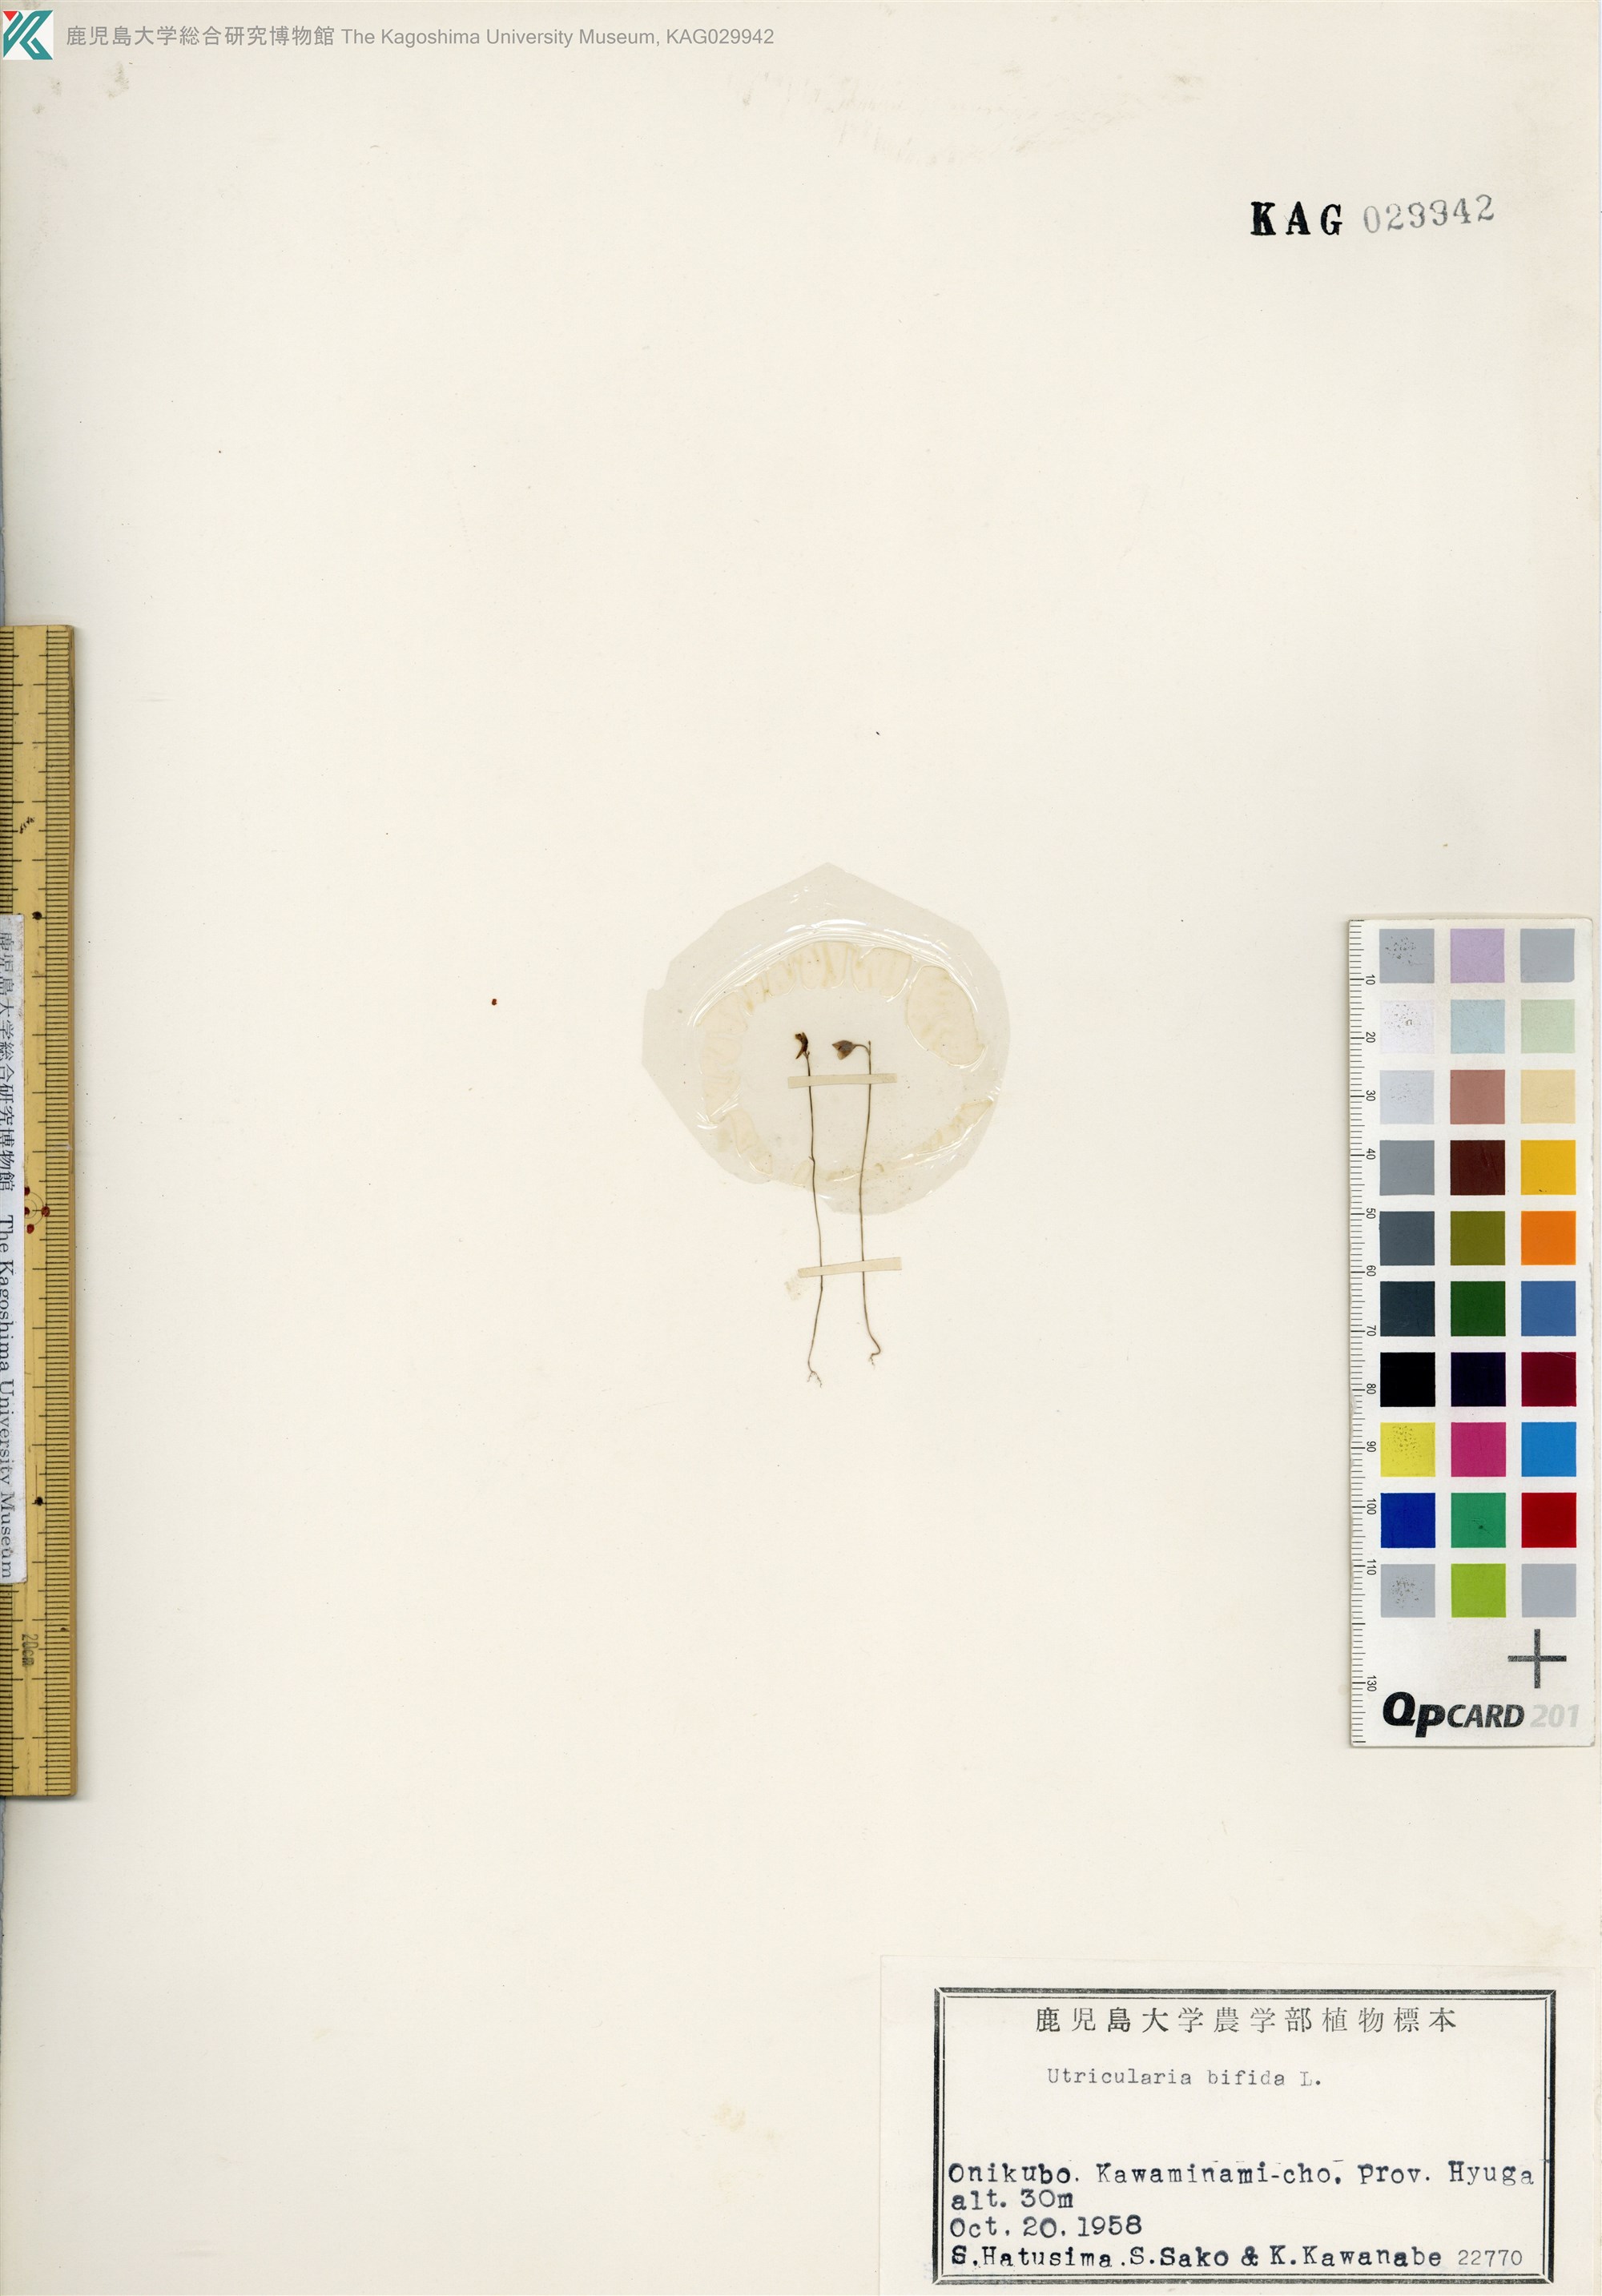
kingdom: Plantae
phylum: Tracheophyta
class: Magnoliopsida
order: Lamiales
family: Lentibulariaceae
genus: Utricularia
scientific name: Utricularia bifida
